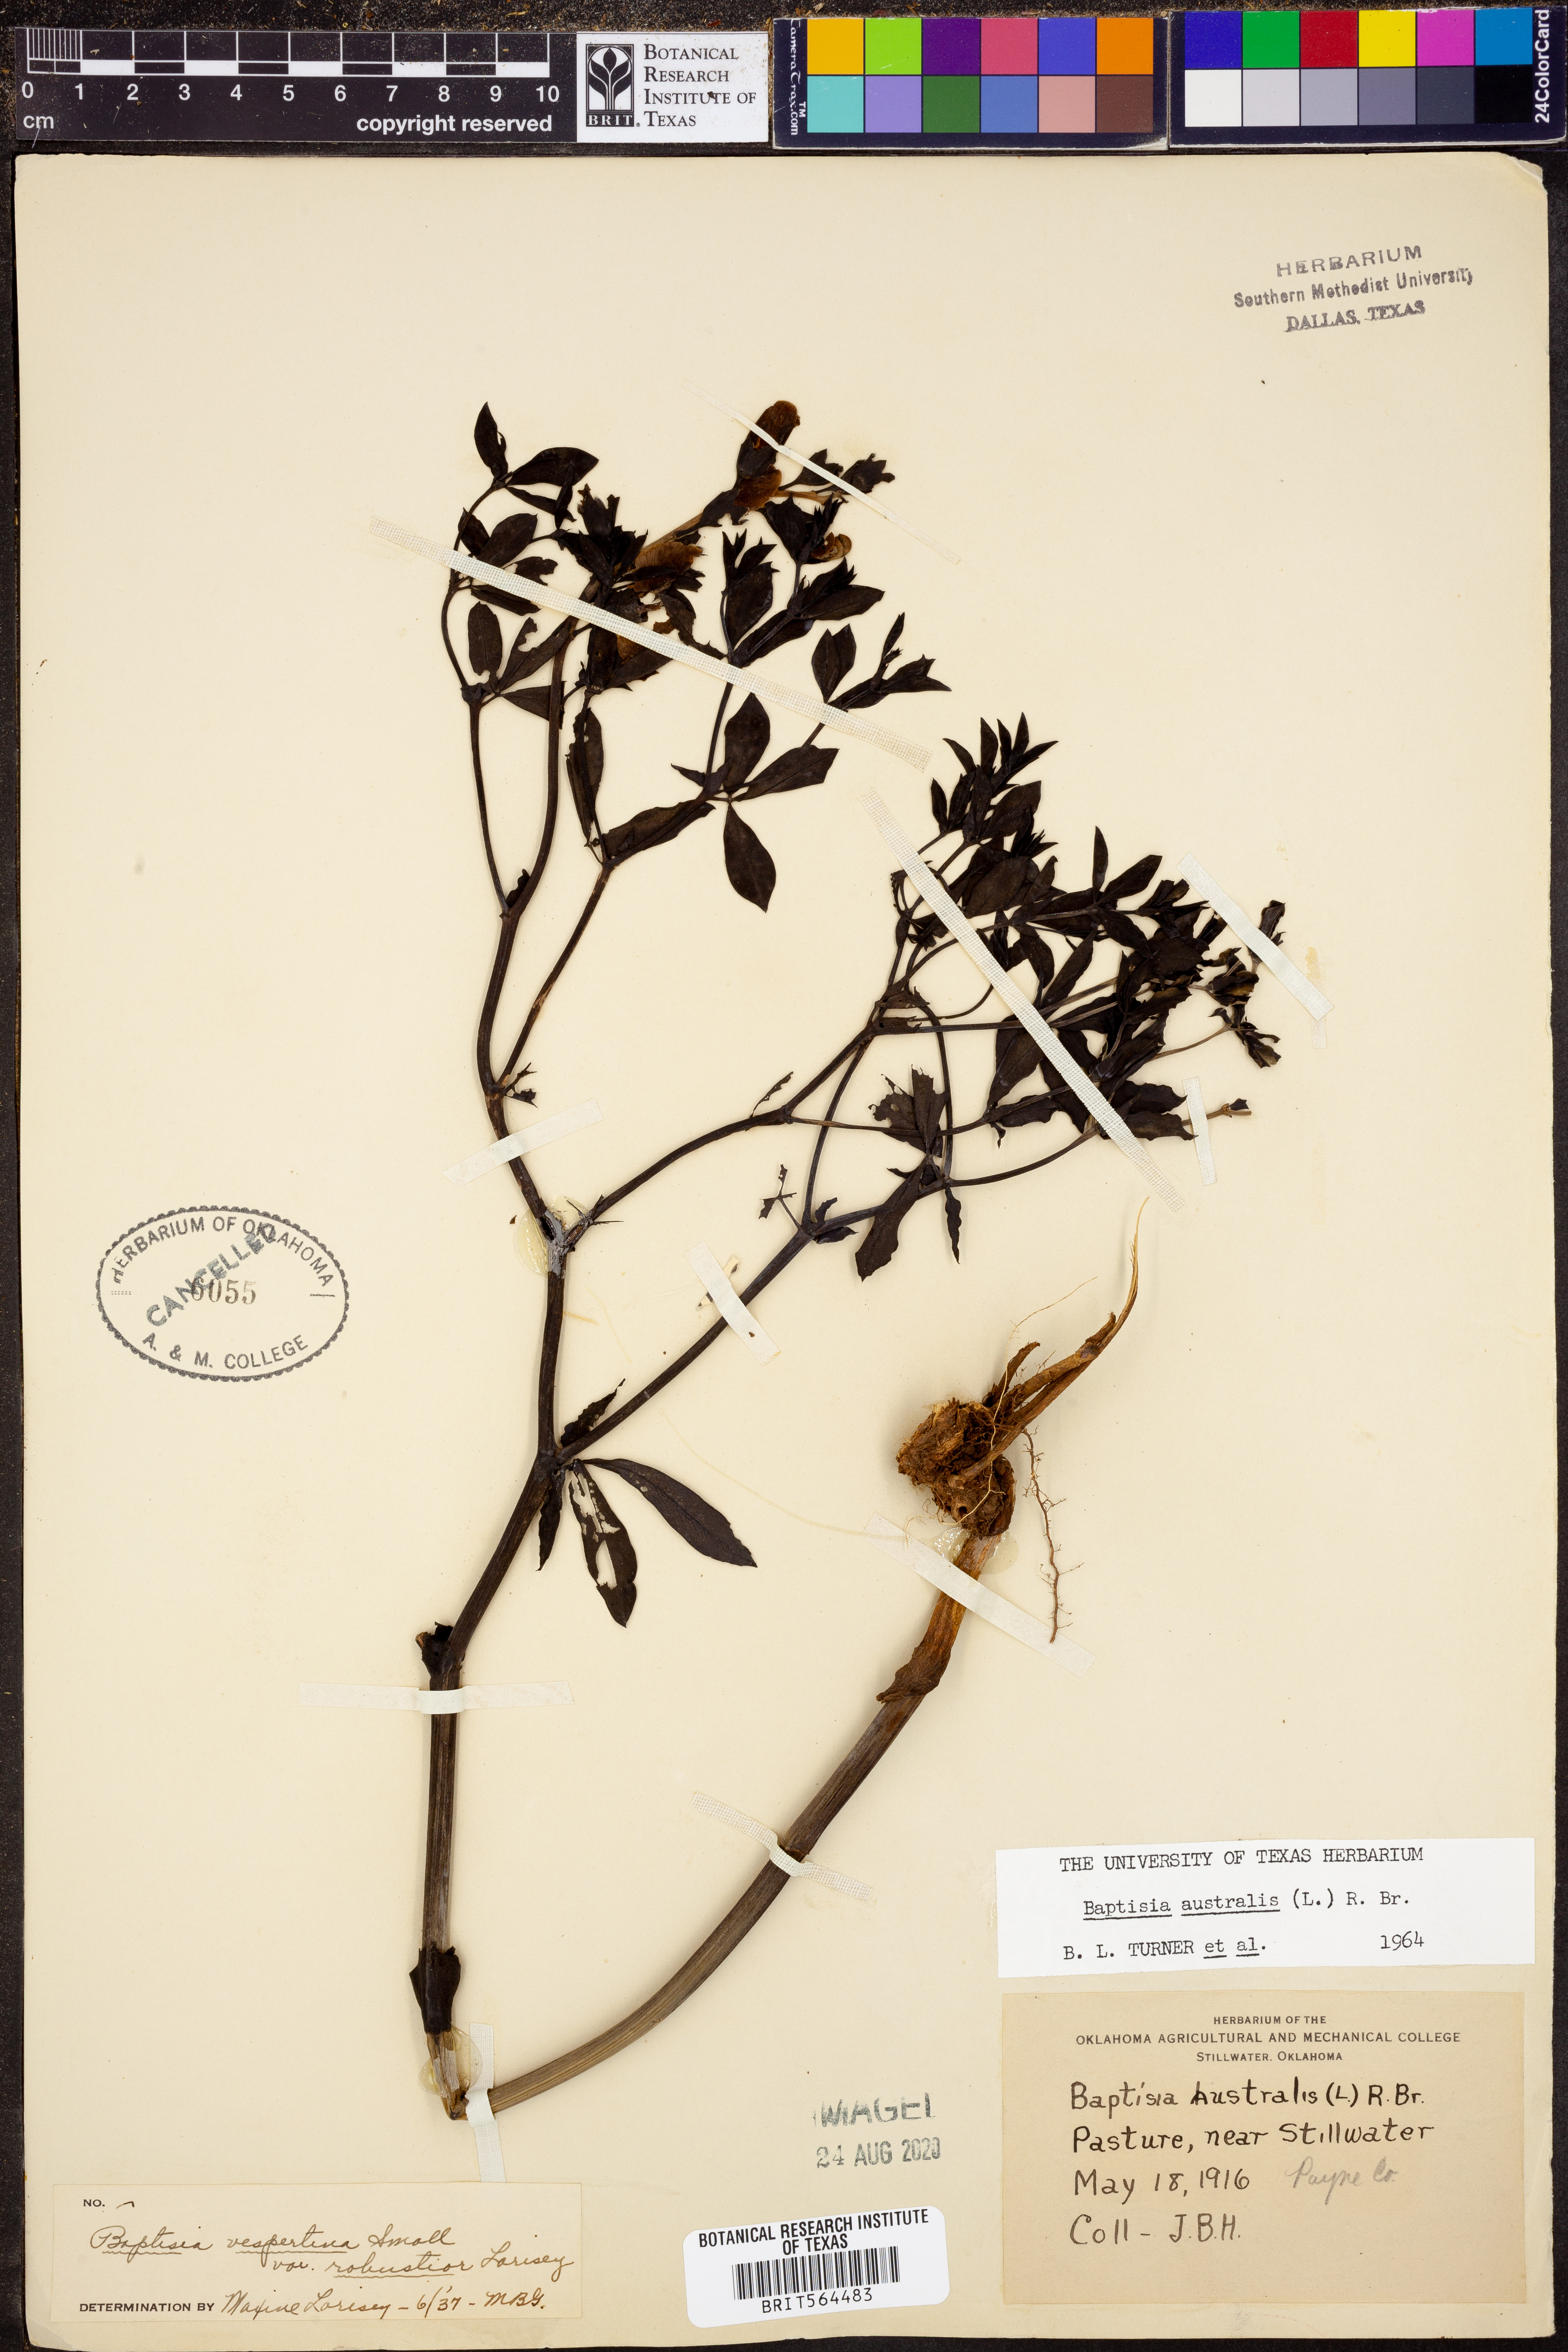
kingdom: Plantae
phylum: Tracheophyta
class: Magnoliopsida
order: Fabales
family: Fabaceae
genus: Baptisia
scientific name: Baptisia australis
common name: Blue false indigo
